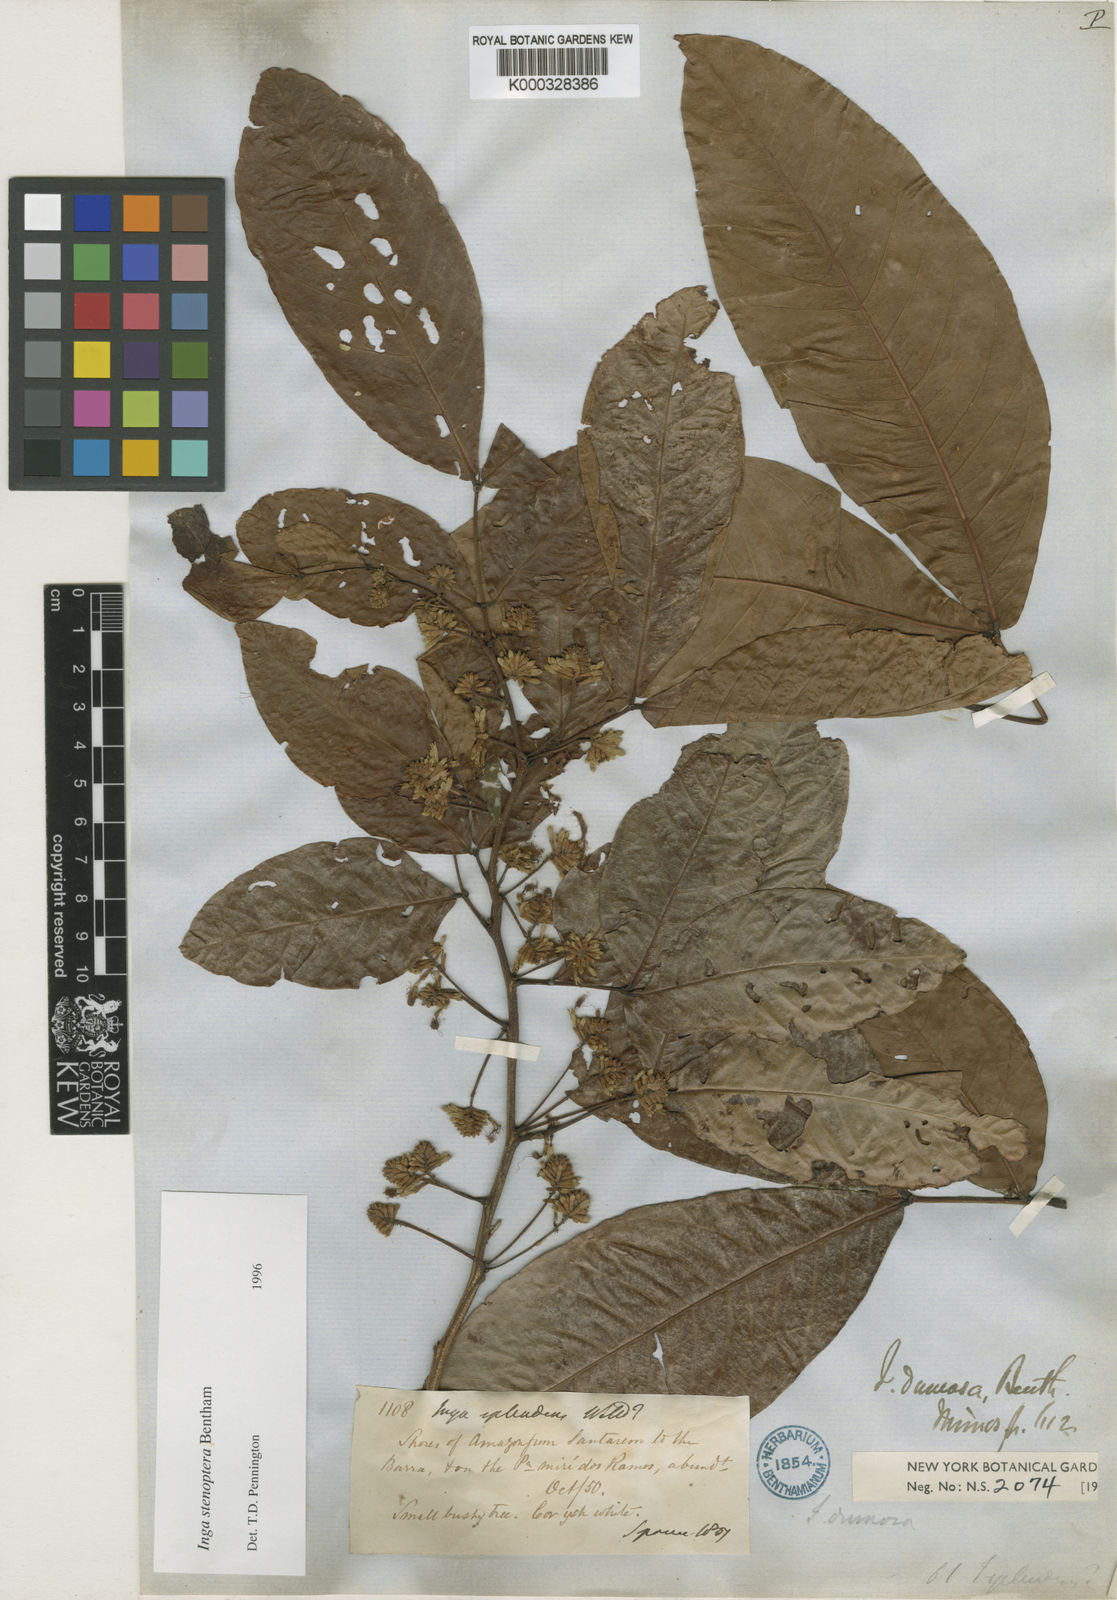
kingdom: Plantae
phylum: Tracheophyta
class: Magnoliopsida
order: Fabales
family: Fabaceae
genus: Inga
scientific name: Inga stenoptera
